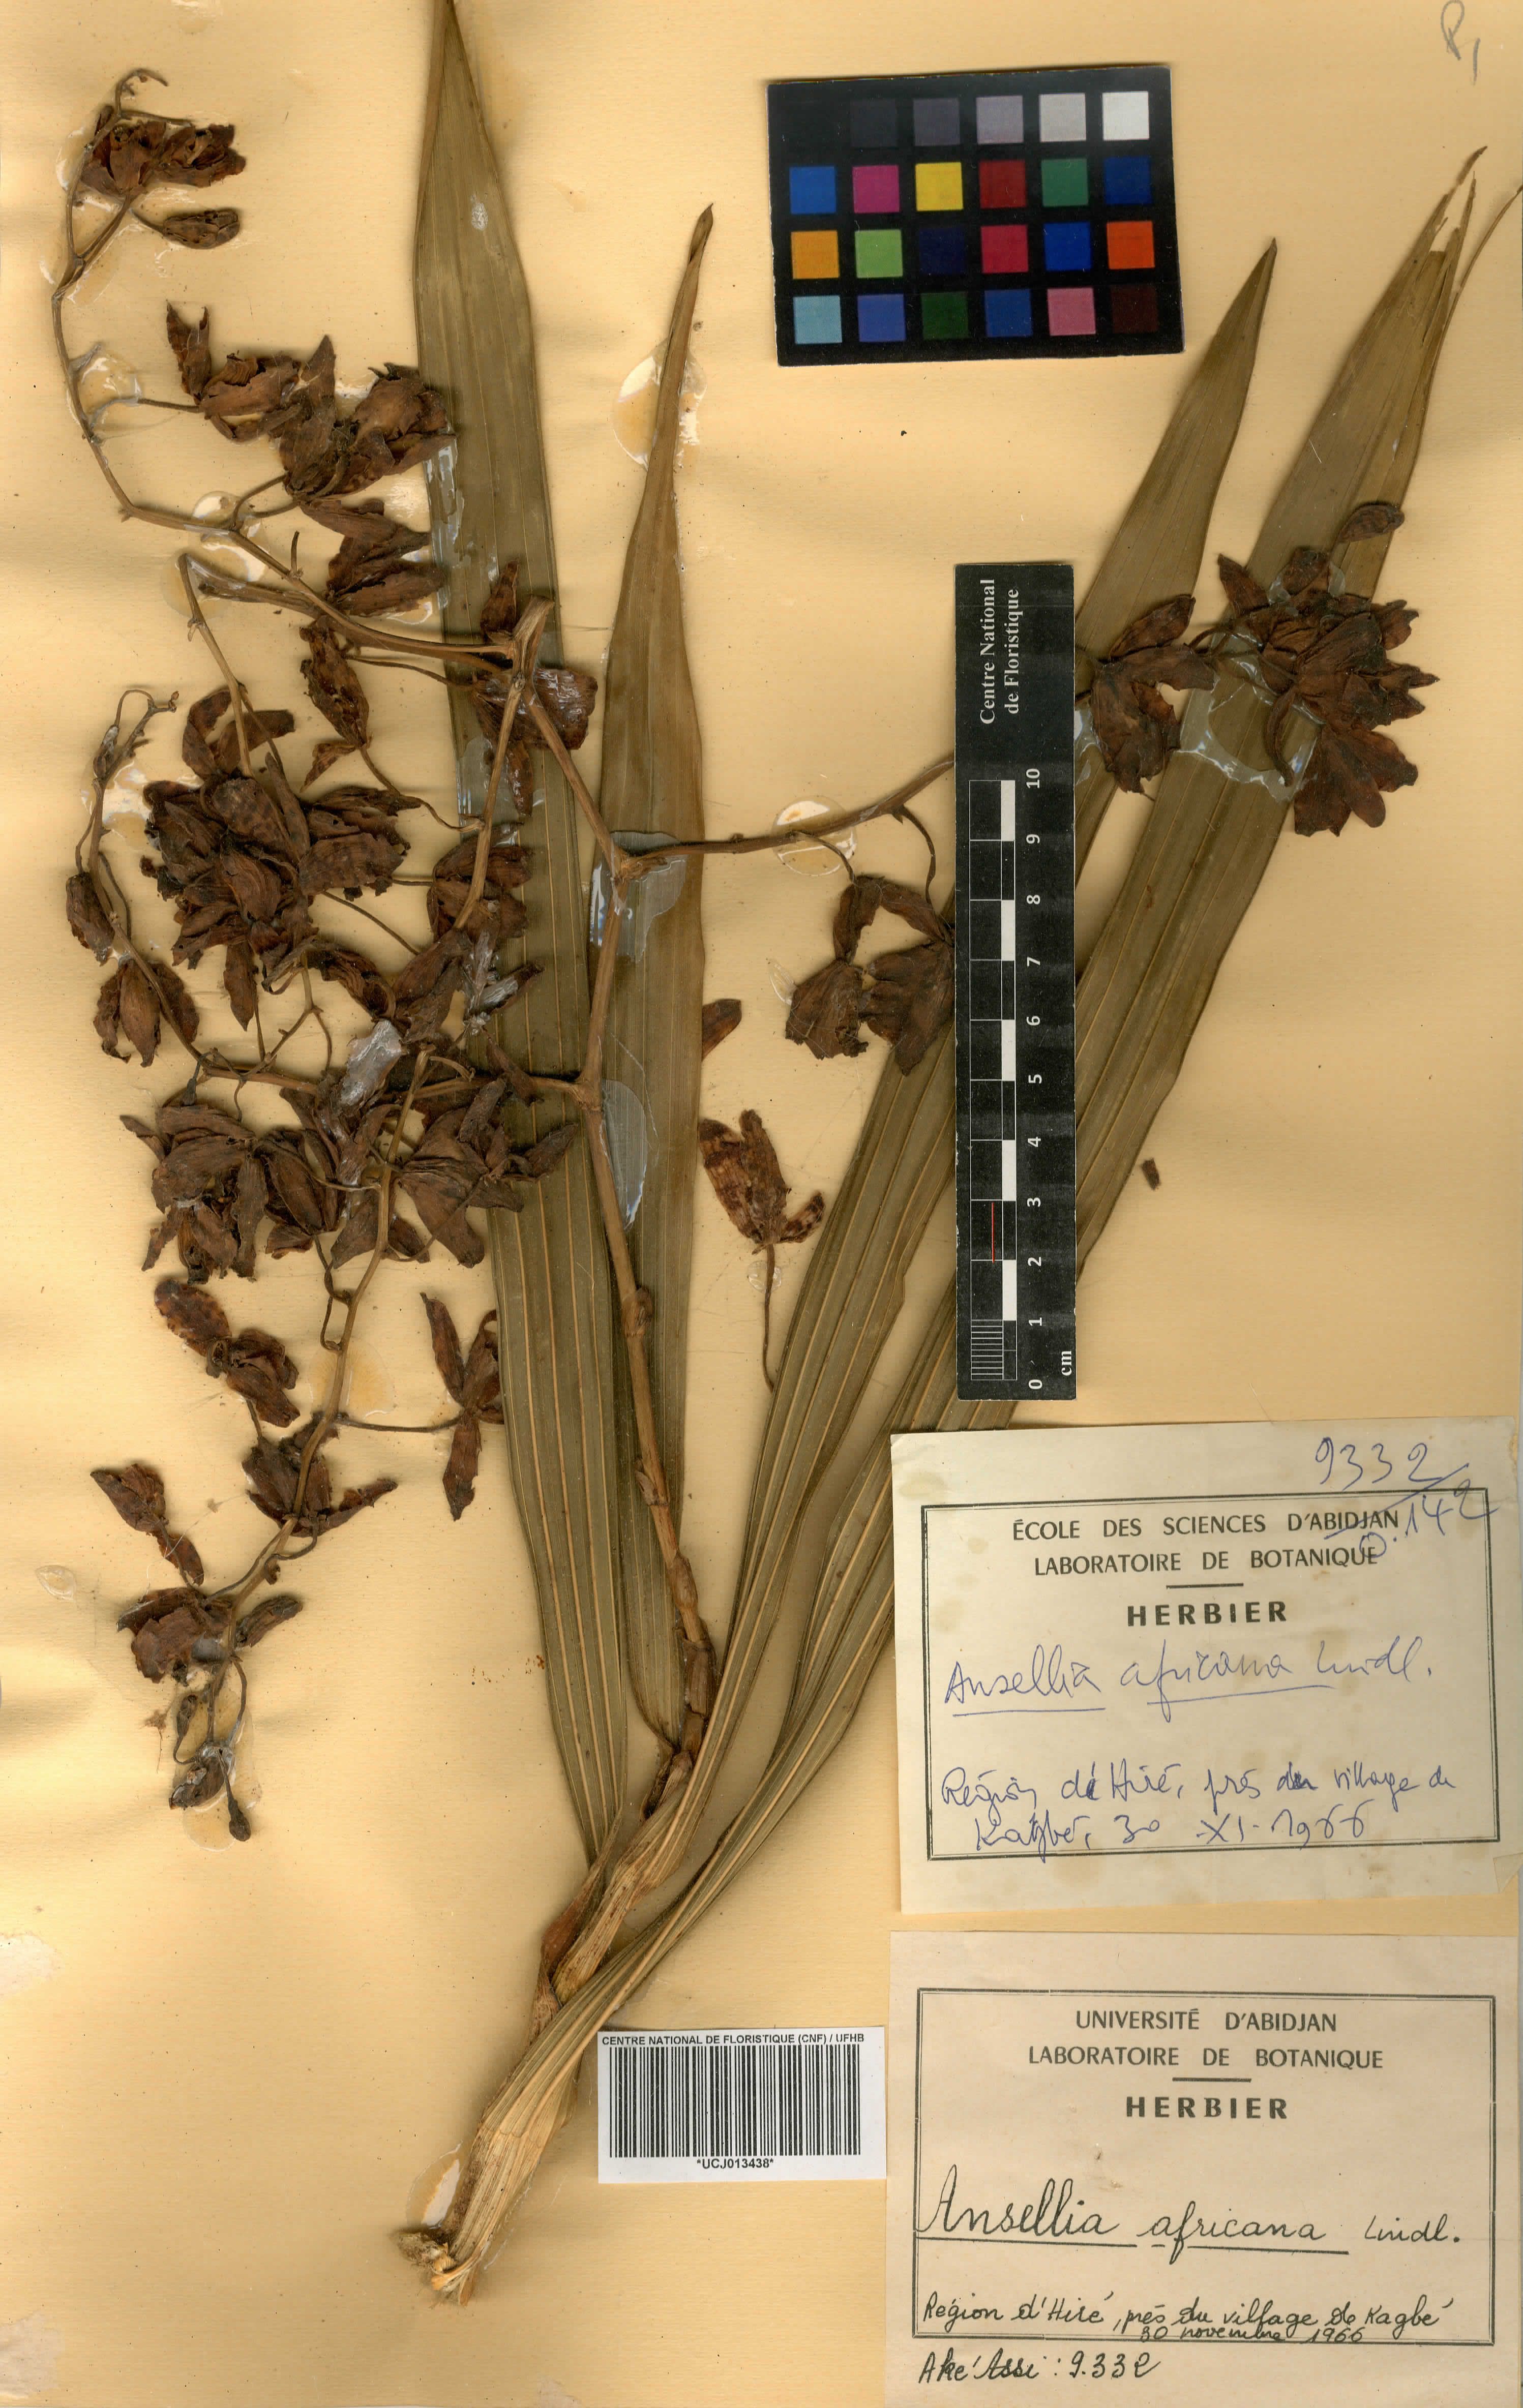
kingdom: Plantae
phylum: Tracheophyta
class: Liliopsida
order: Asparagales
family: Orchidaceae
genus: Ansellia
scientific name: Ansellia africana
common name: African ansellia
